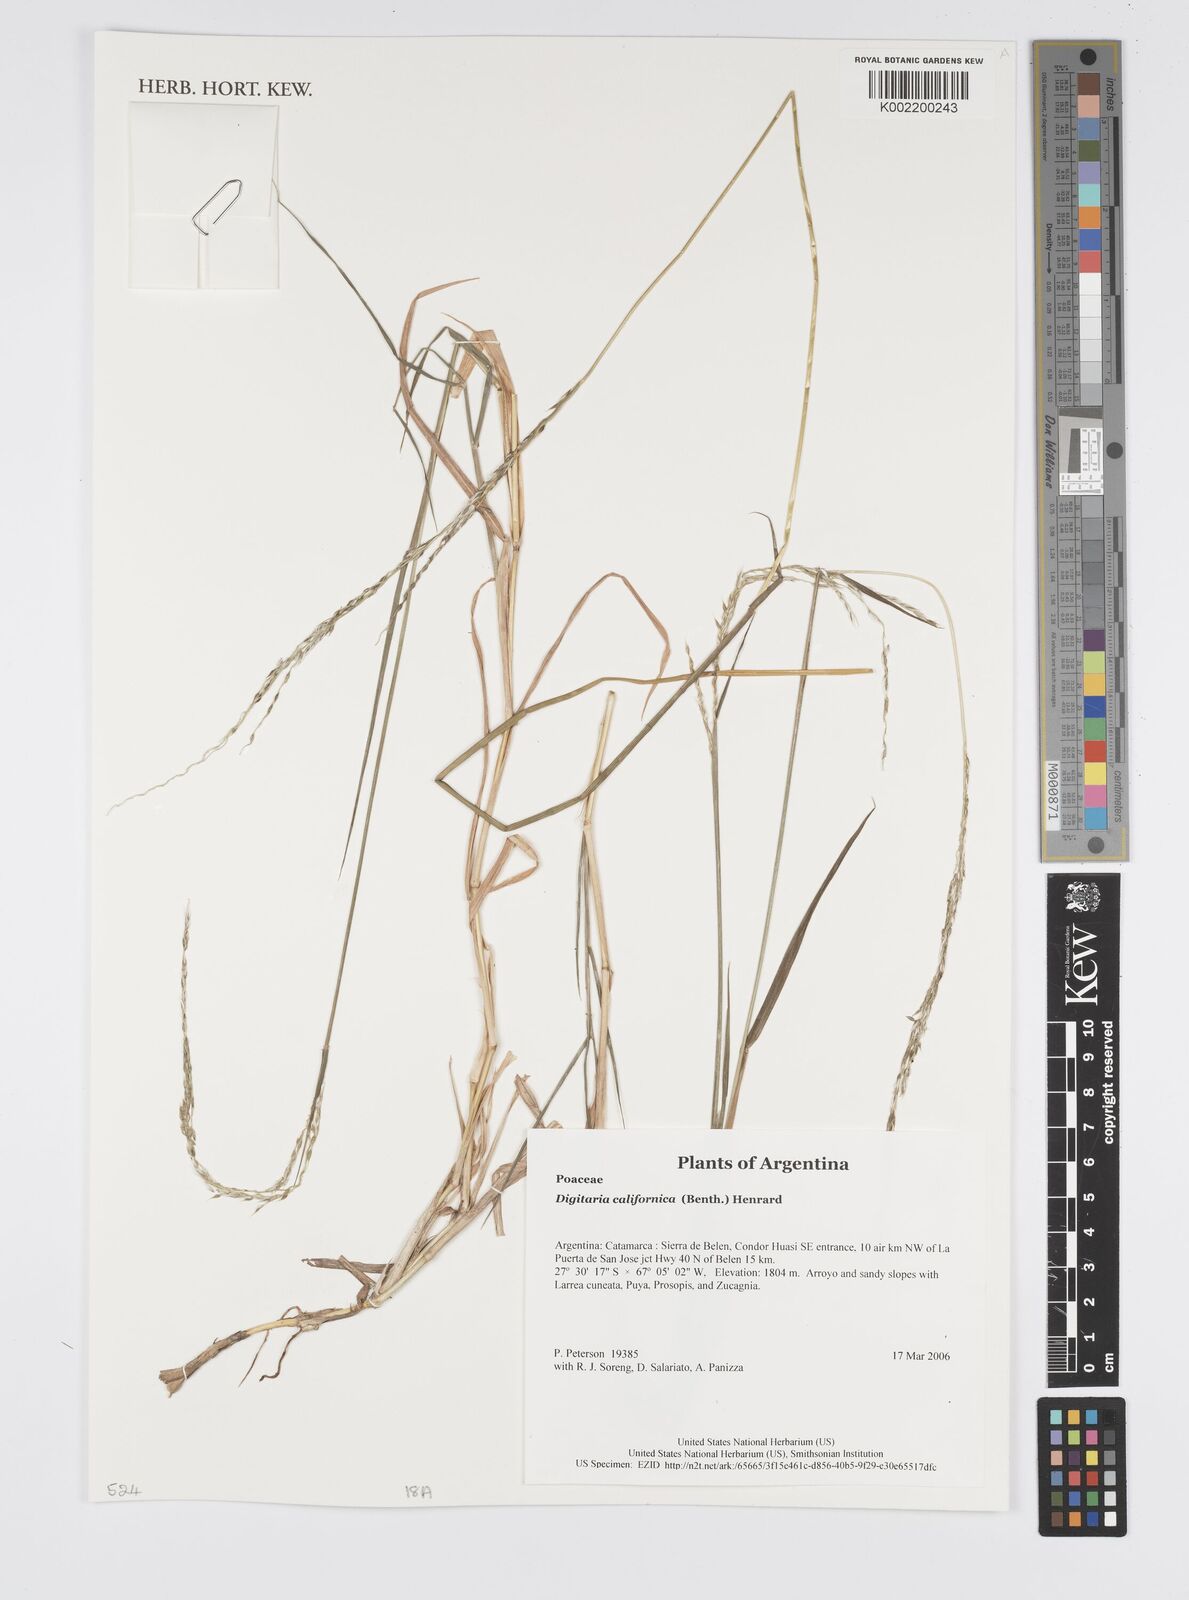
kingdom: Plantae
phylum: Tracheophyta
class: Liliopsida
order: Poales
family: Poaceae
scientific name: Poaceae
